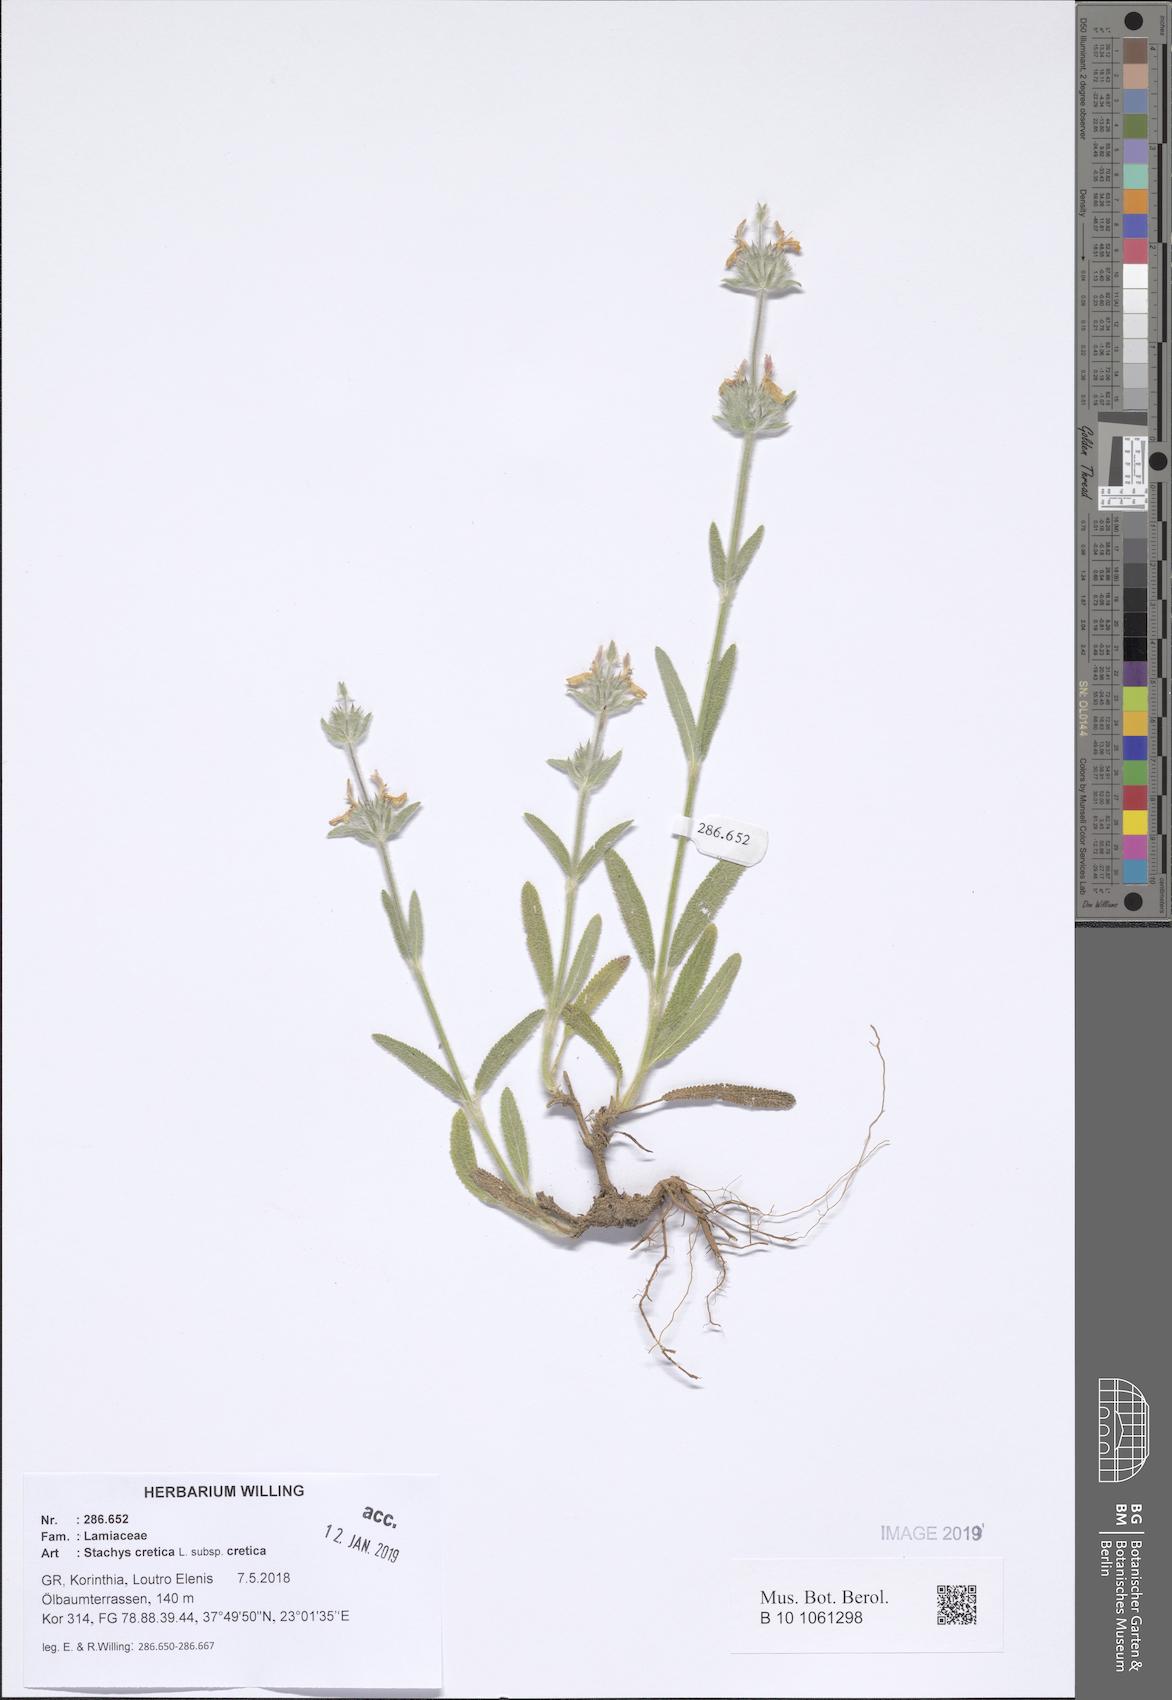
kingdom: Plantae
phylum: Tracheophyta
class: Magnoliopsida
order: Lamiales
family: Lamiaceae
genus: Stachys
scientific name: Stachys cretica
